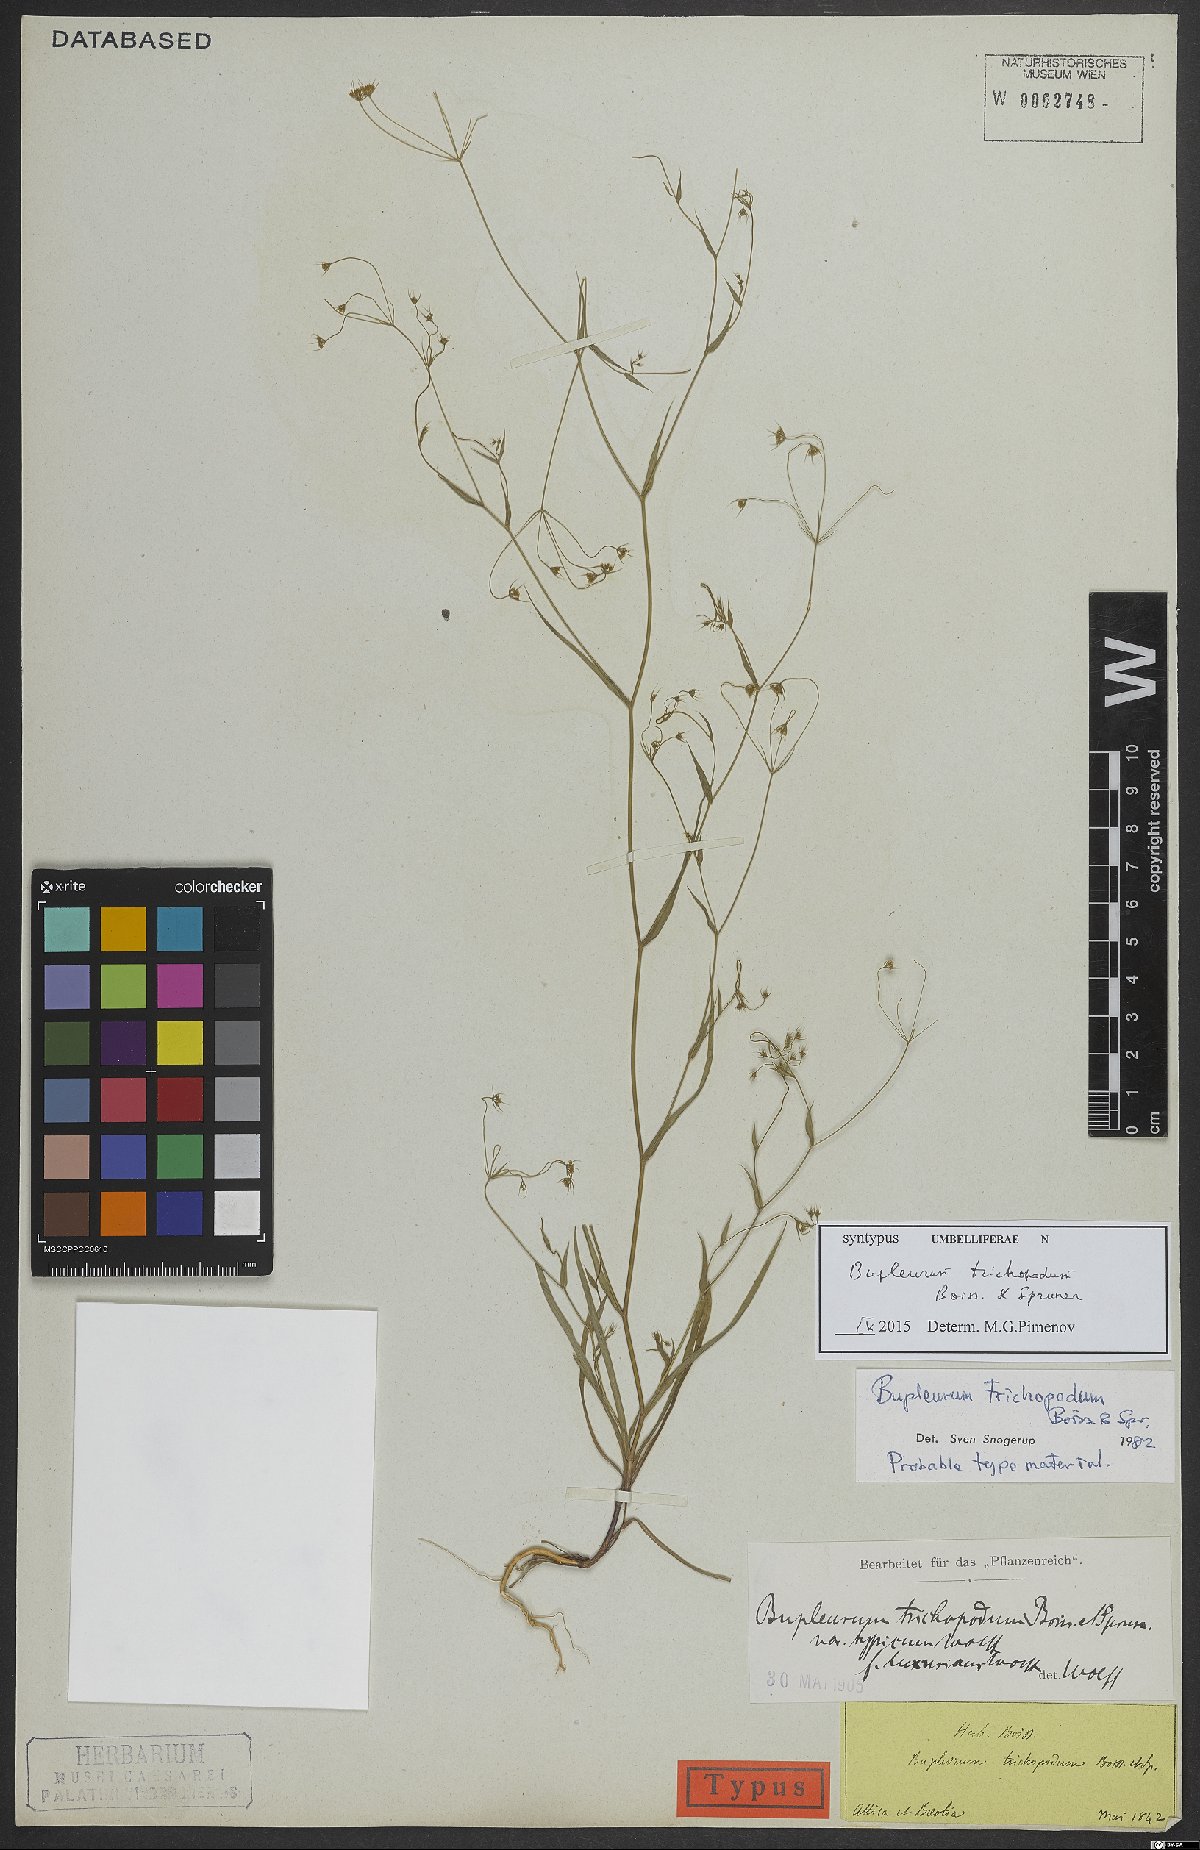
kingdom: Plantae
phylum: Tracheophyta
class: Magnoliopsida
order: Apiales
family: Apiaceae
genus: Bupleurum
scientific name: Bupleurum trichopodum
